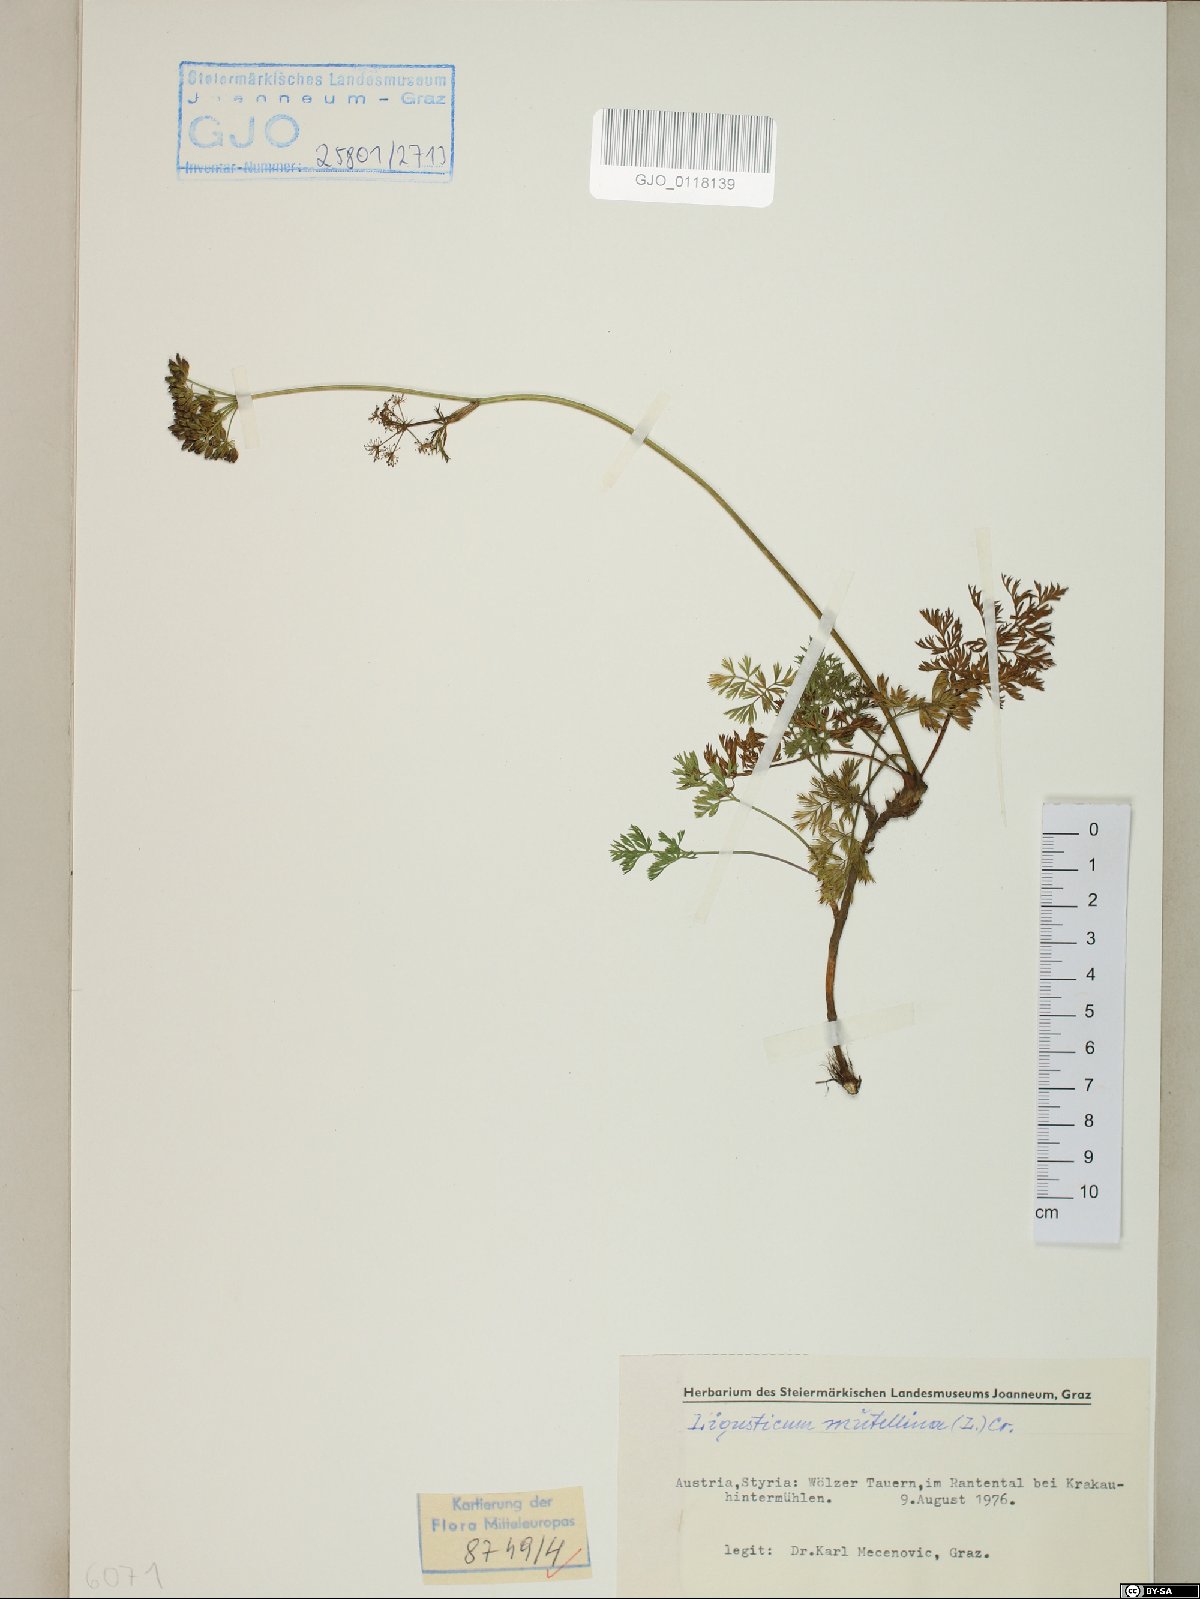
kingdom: Plantae
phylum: Tracheophyta
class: Magnoliopsida
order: Apiales
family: Apiaceae
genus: Mutellina
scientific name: Mutellina adonidifolia
